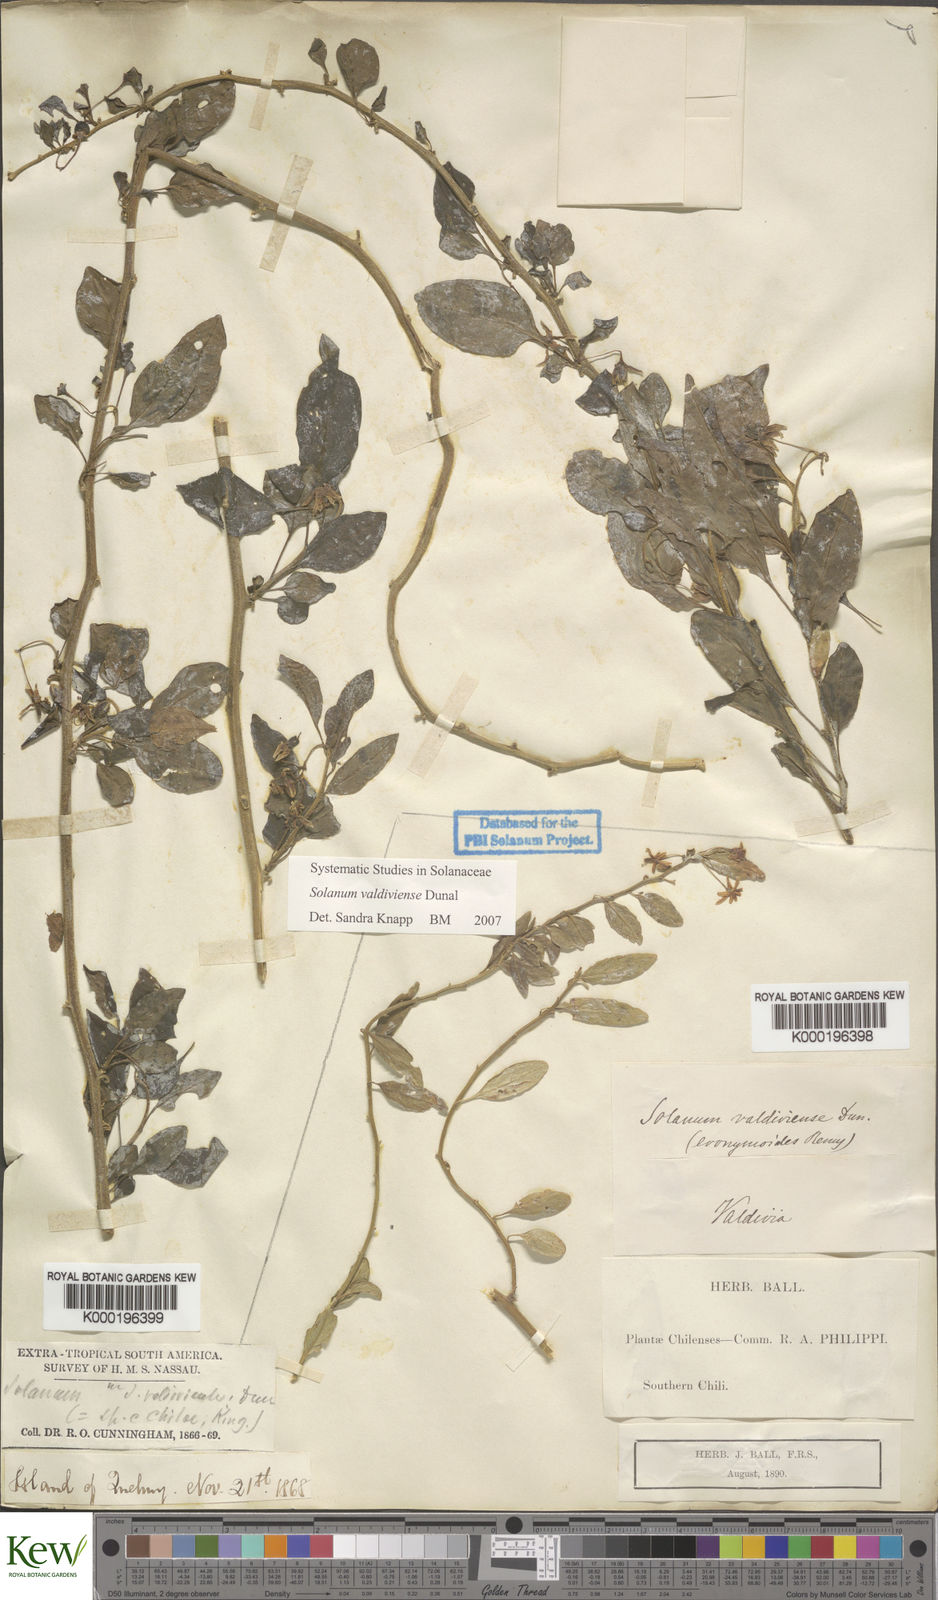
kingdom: Plantae
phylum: Tracheophyta
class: Magnoliopsida
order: Solanales
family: Solanaceae
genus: Solanum
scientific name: Solanum valdiviense
